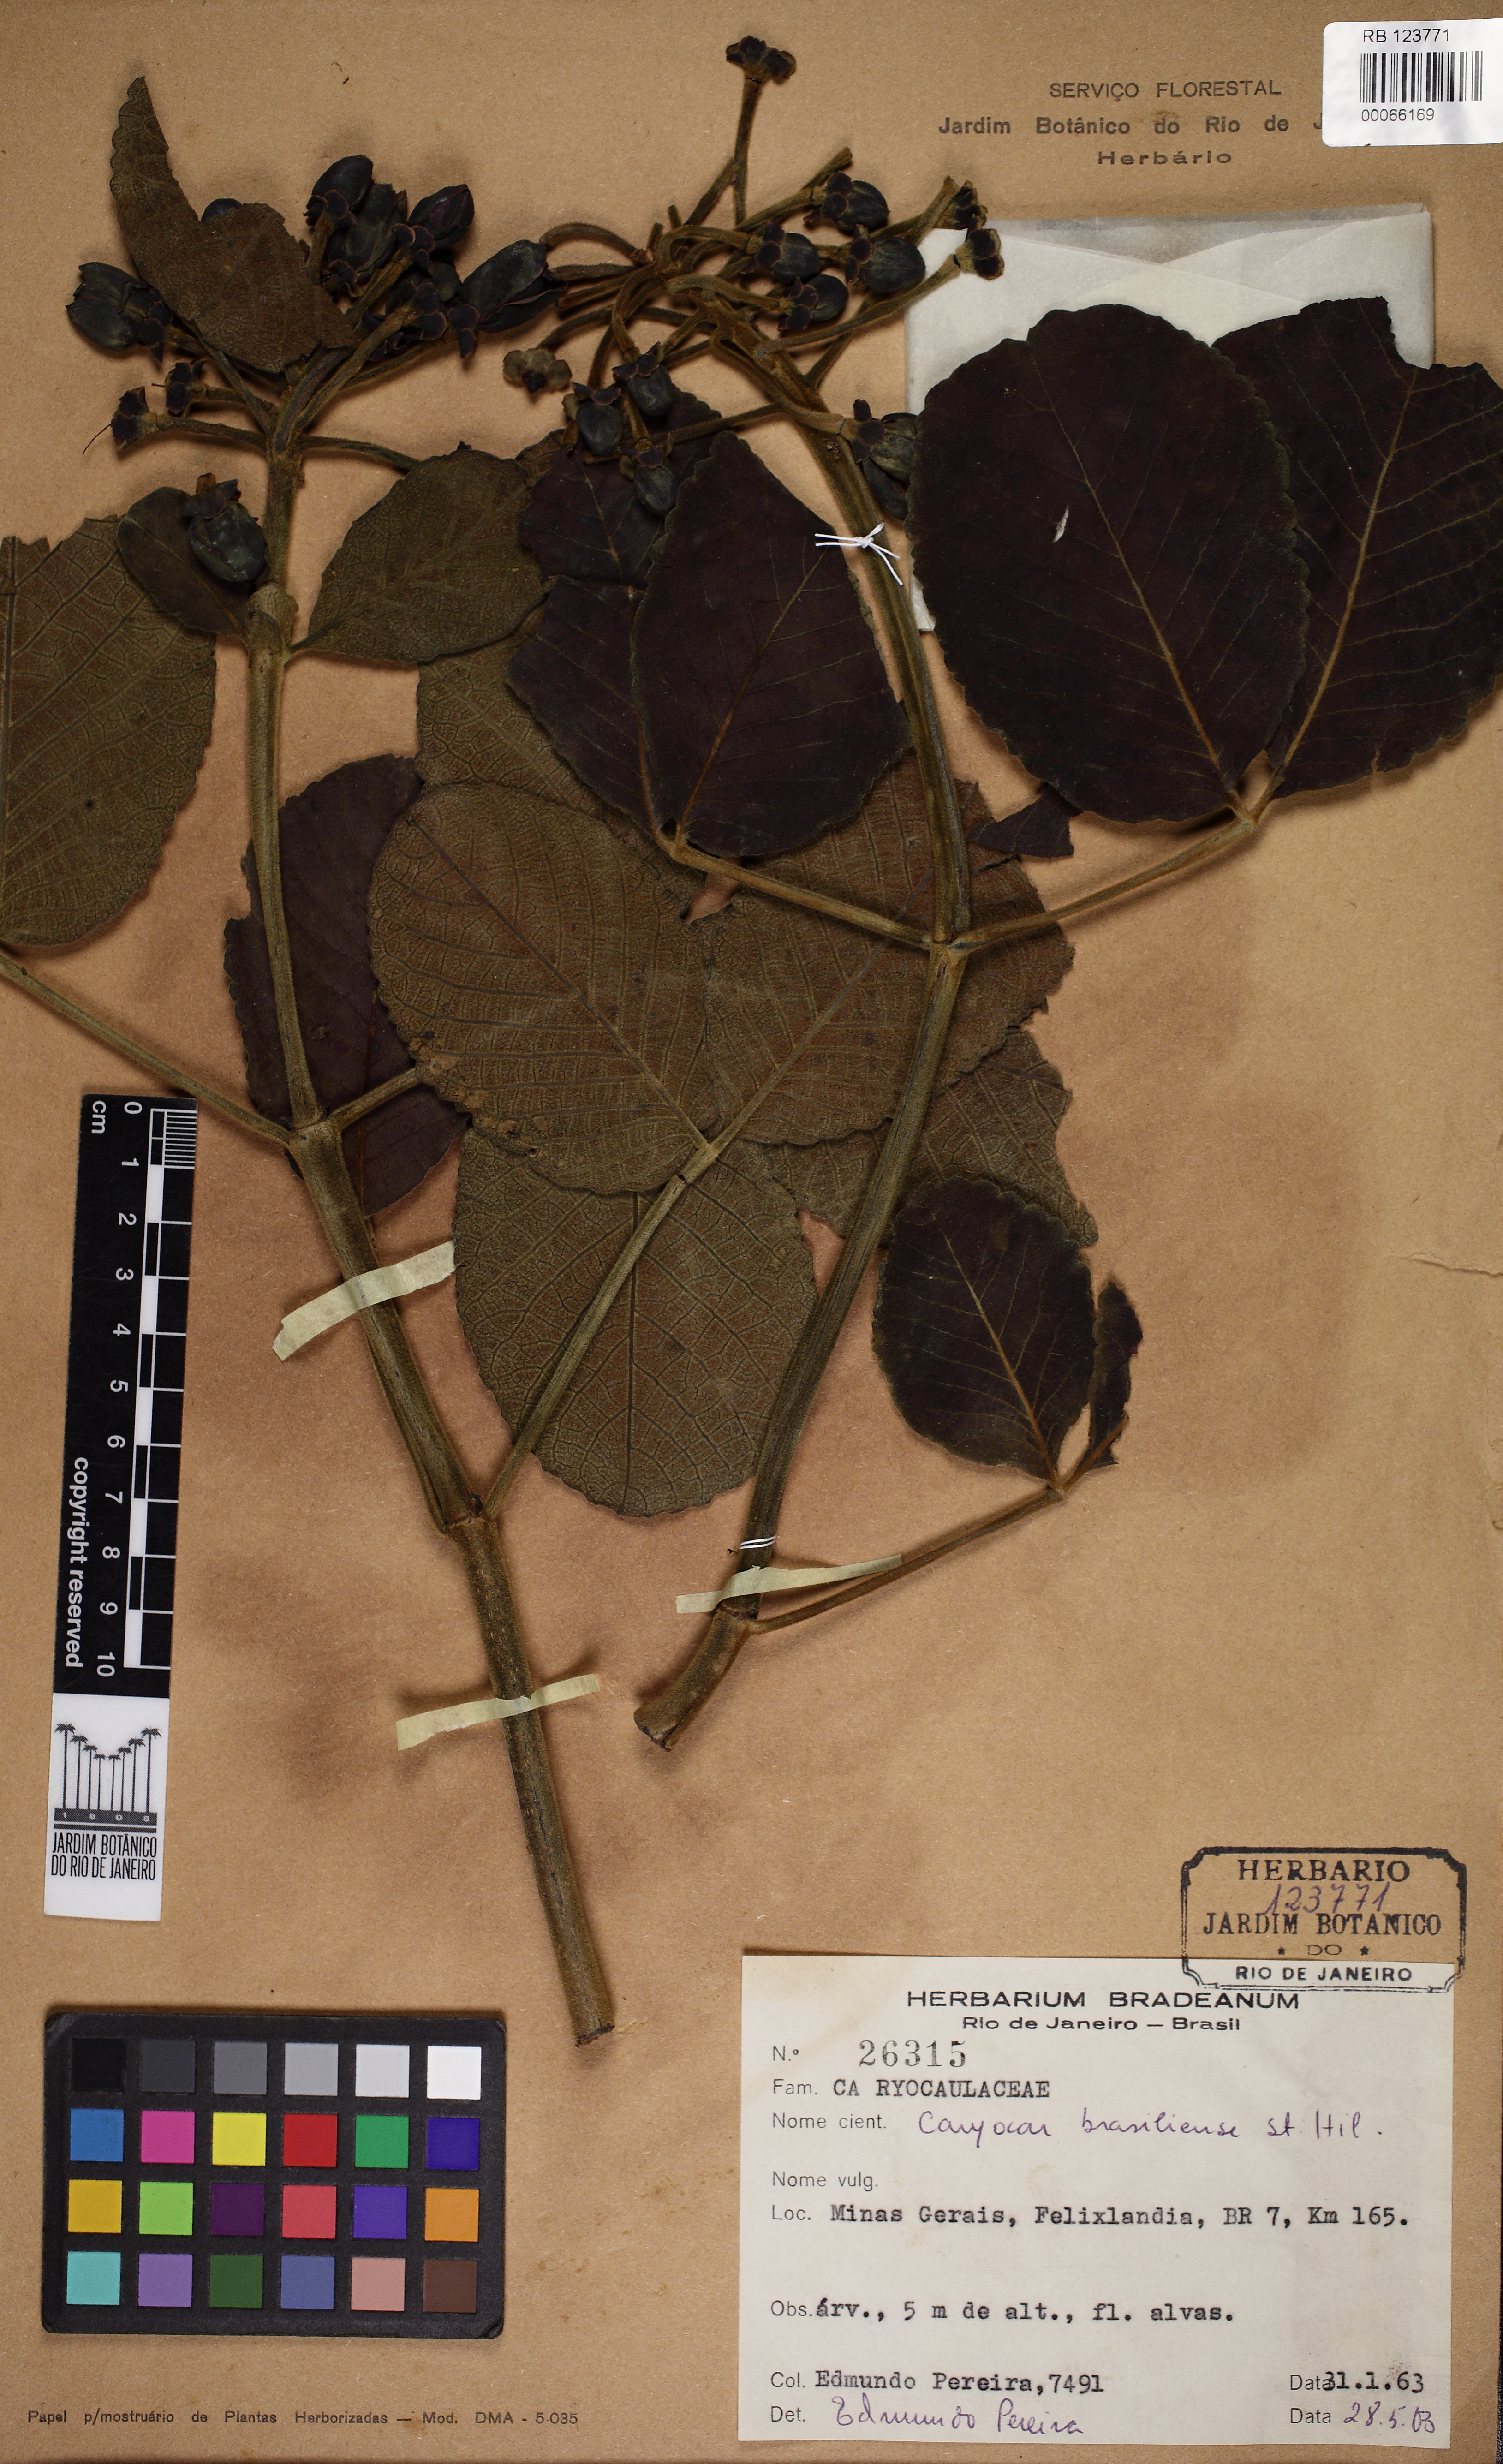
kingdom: Plantae
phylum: Tracheophyta
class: Magnoliopsida
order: Malpighiales
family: Caryocaraceae
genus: Caryocar
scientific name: Caryocar brasiliense
